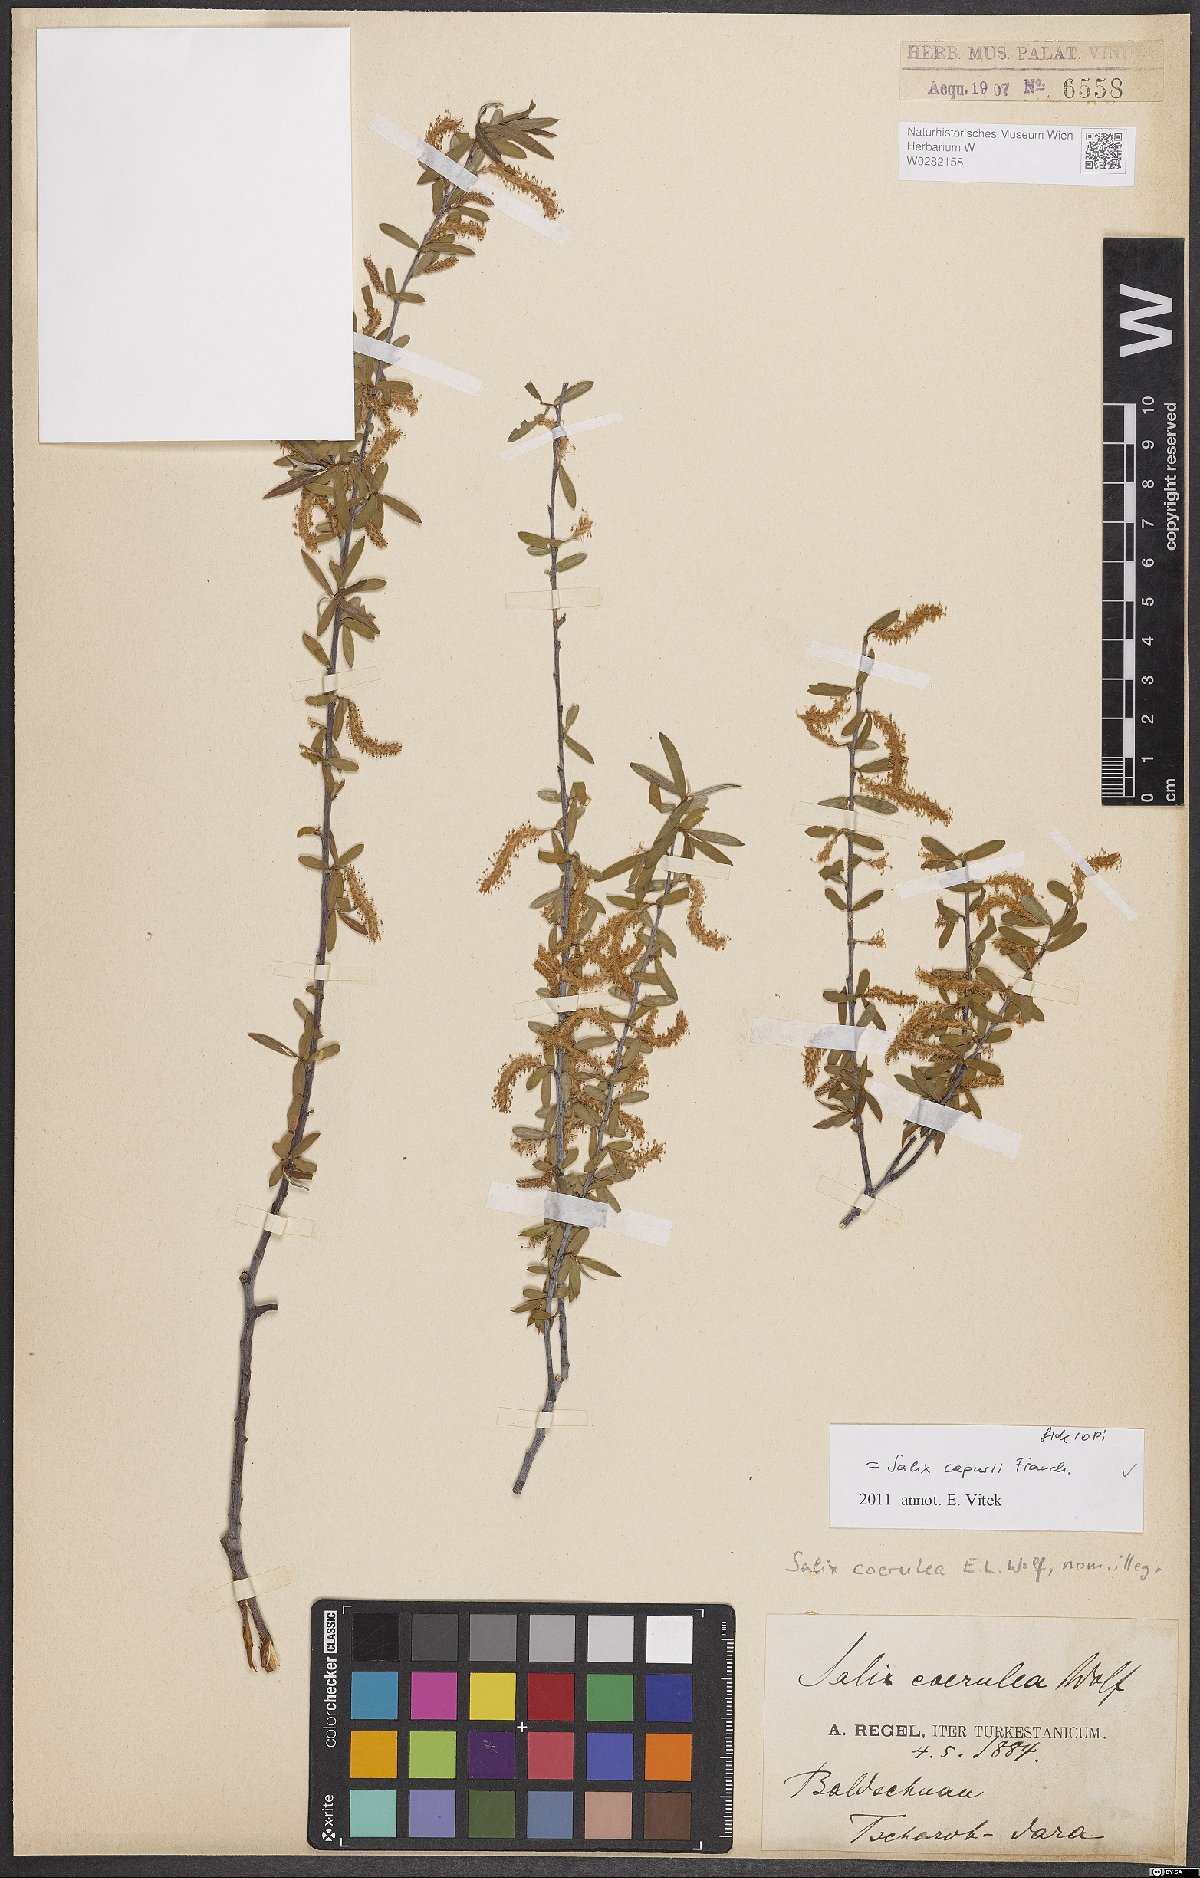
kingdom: Plantae
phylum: Tracheophyta
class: Magnoliopsida
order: Malpighiales
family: Salicaceae
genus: Salix
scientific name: Salix capusii
